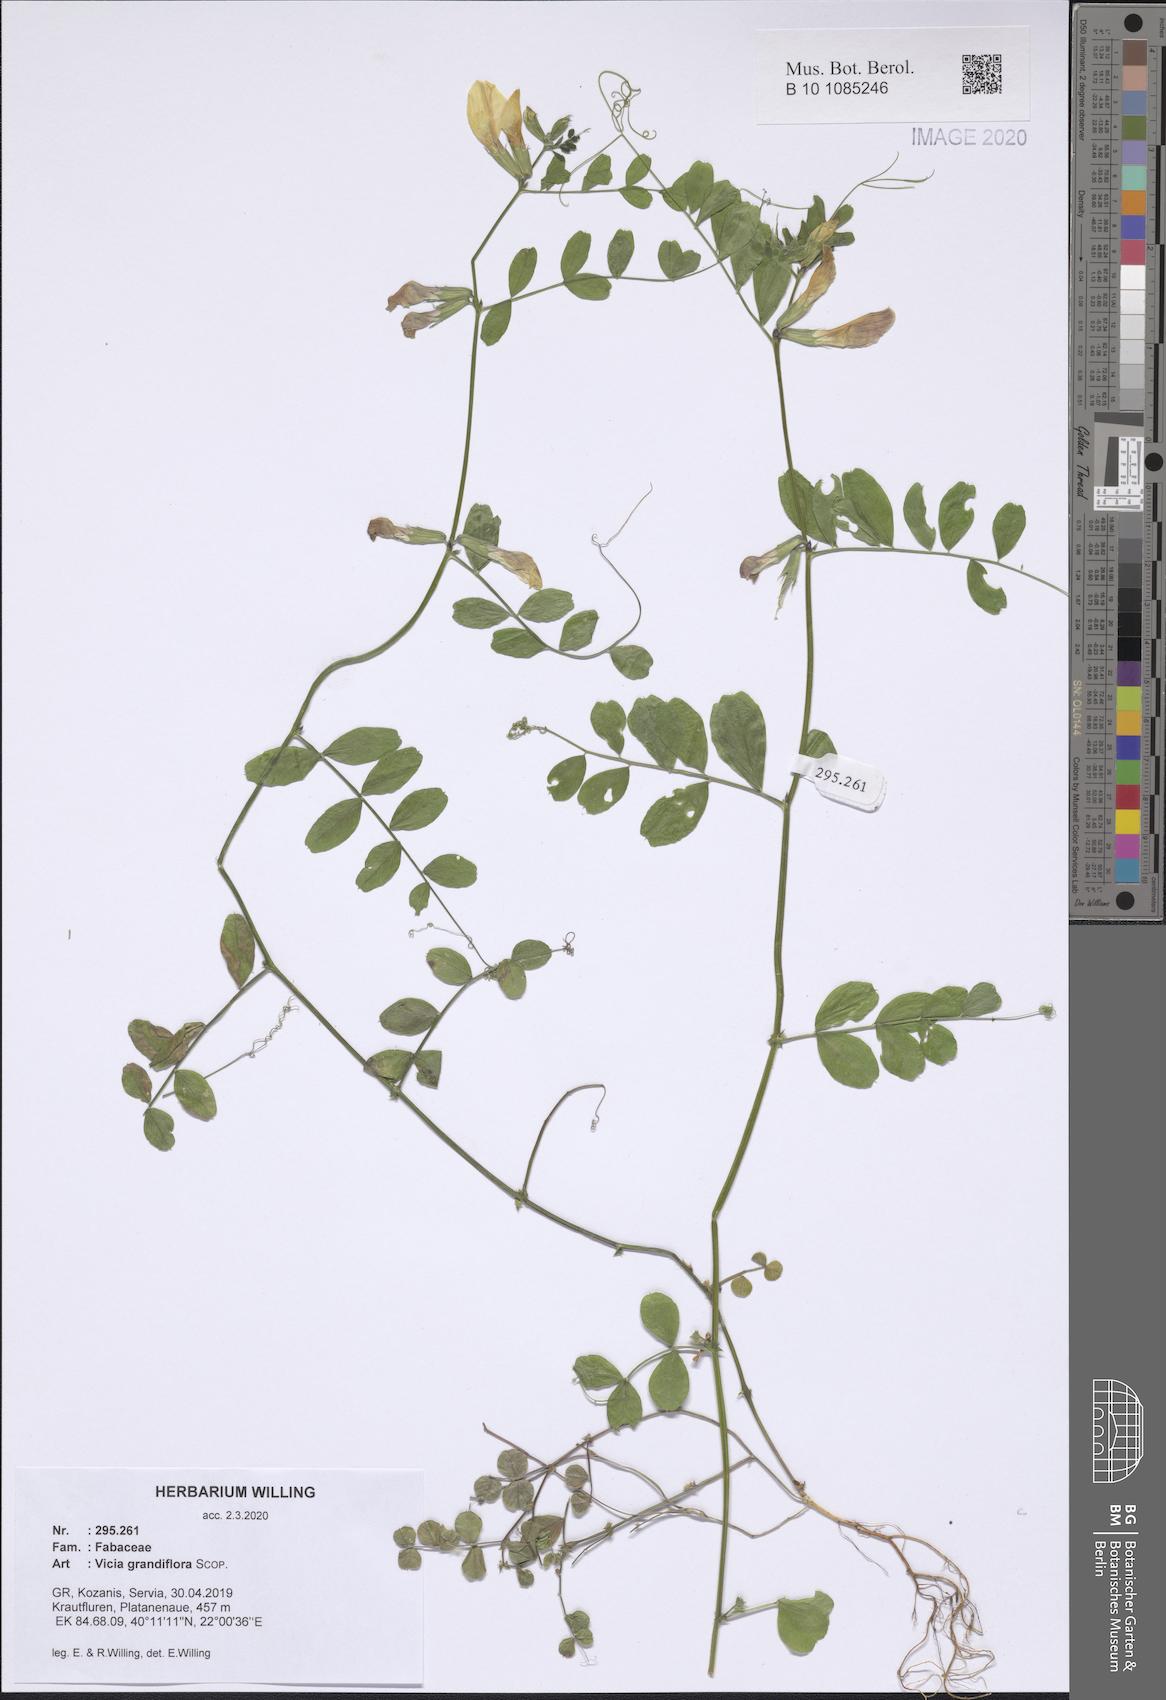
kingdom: Plantae
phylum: Tracheophyta
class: Magnoliopsida
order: Fabales
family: Fabaceae
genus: Vicia
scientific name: Vicia grandiflora
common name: Large yellow vetch
